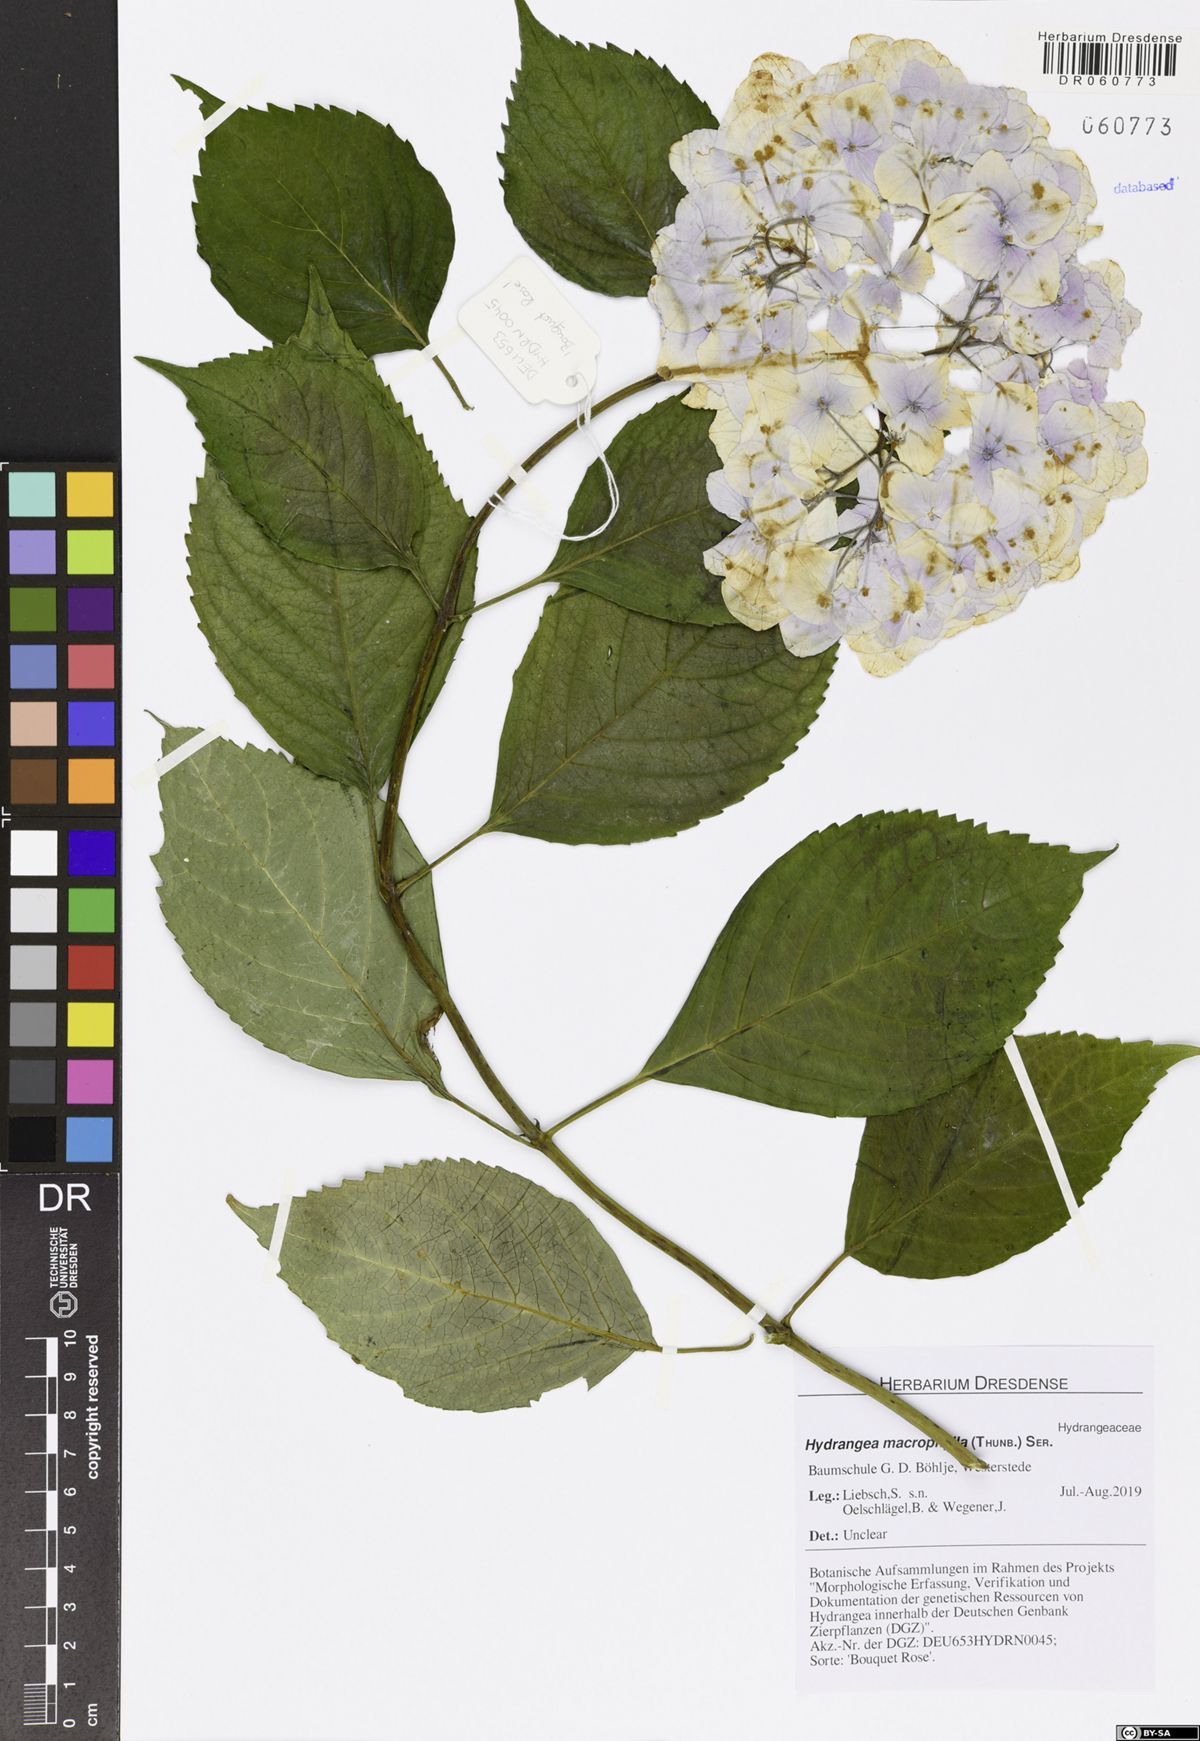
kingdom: Plantae
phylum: Tracheophyta
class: Magnoliopsida
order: Cornales
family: Hydrangeaceae
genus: Hydrangea
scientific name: Hydrangea macrophylla
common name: Hydrangea
